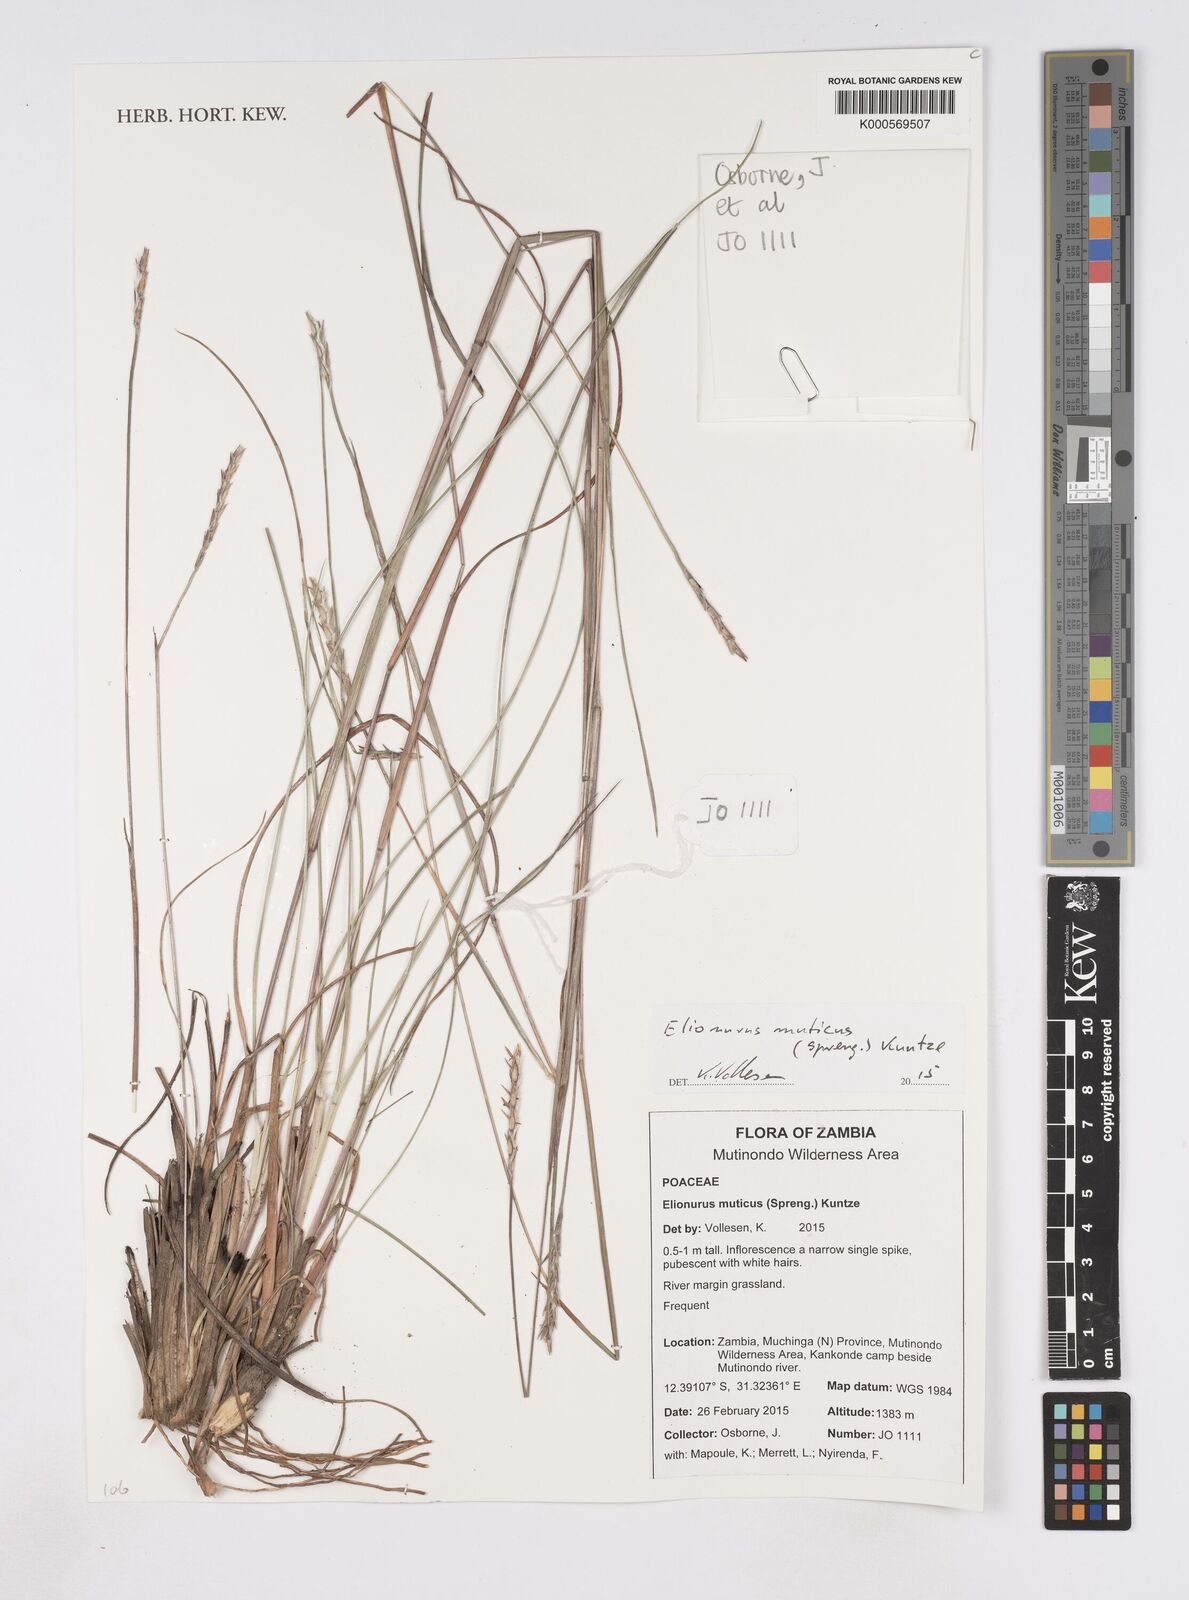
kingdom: Plantae
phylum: Tracheophyta
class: Liliopsida
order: Poales
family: Poaceae
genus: Elionurus
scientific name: Elionurus muticus
